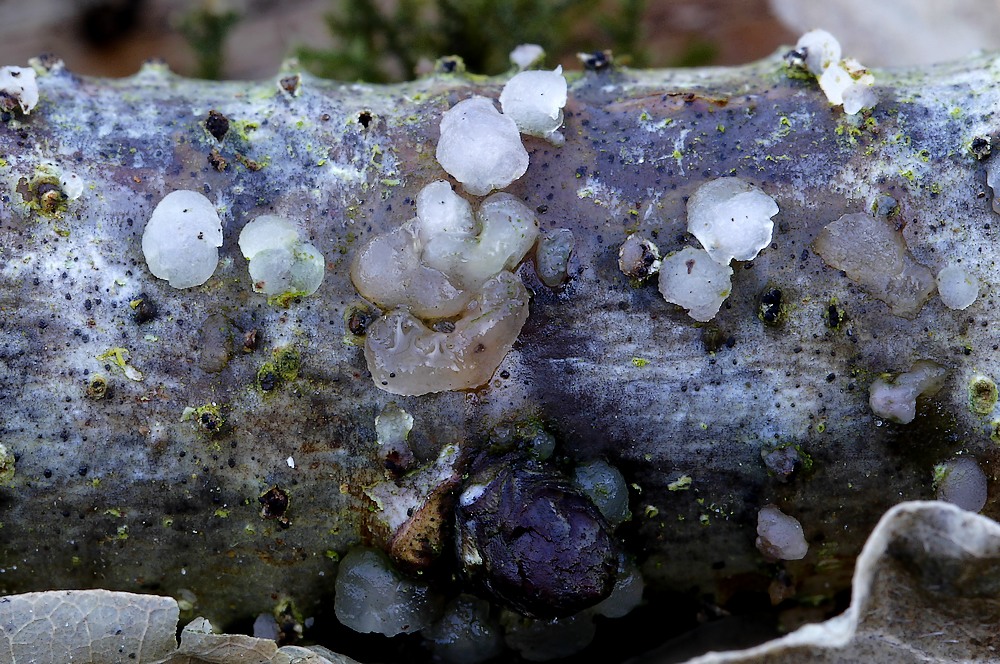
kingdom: Fungi
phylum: Basidiomycota
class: Tremellomycetes
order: Tremellales
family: Tremellaceae
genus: Tremella
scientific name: Tremella globispora
